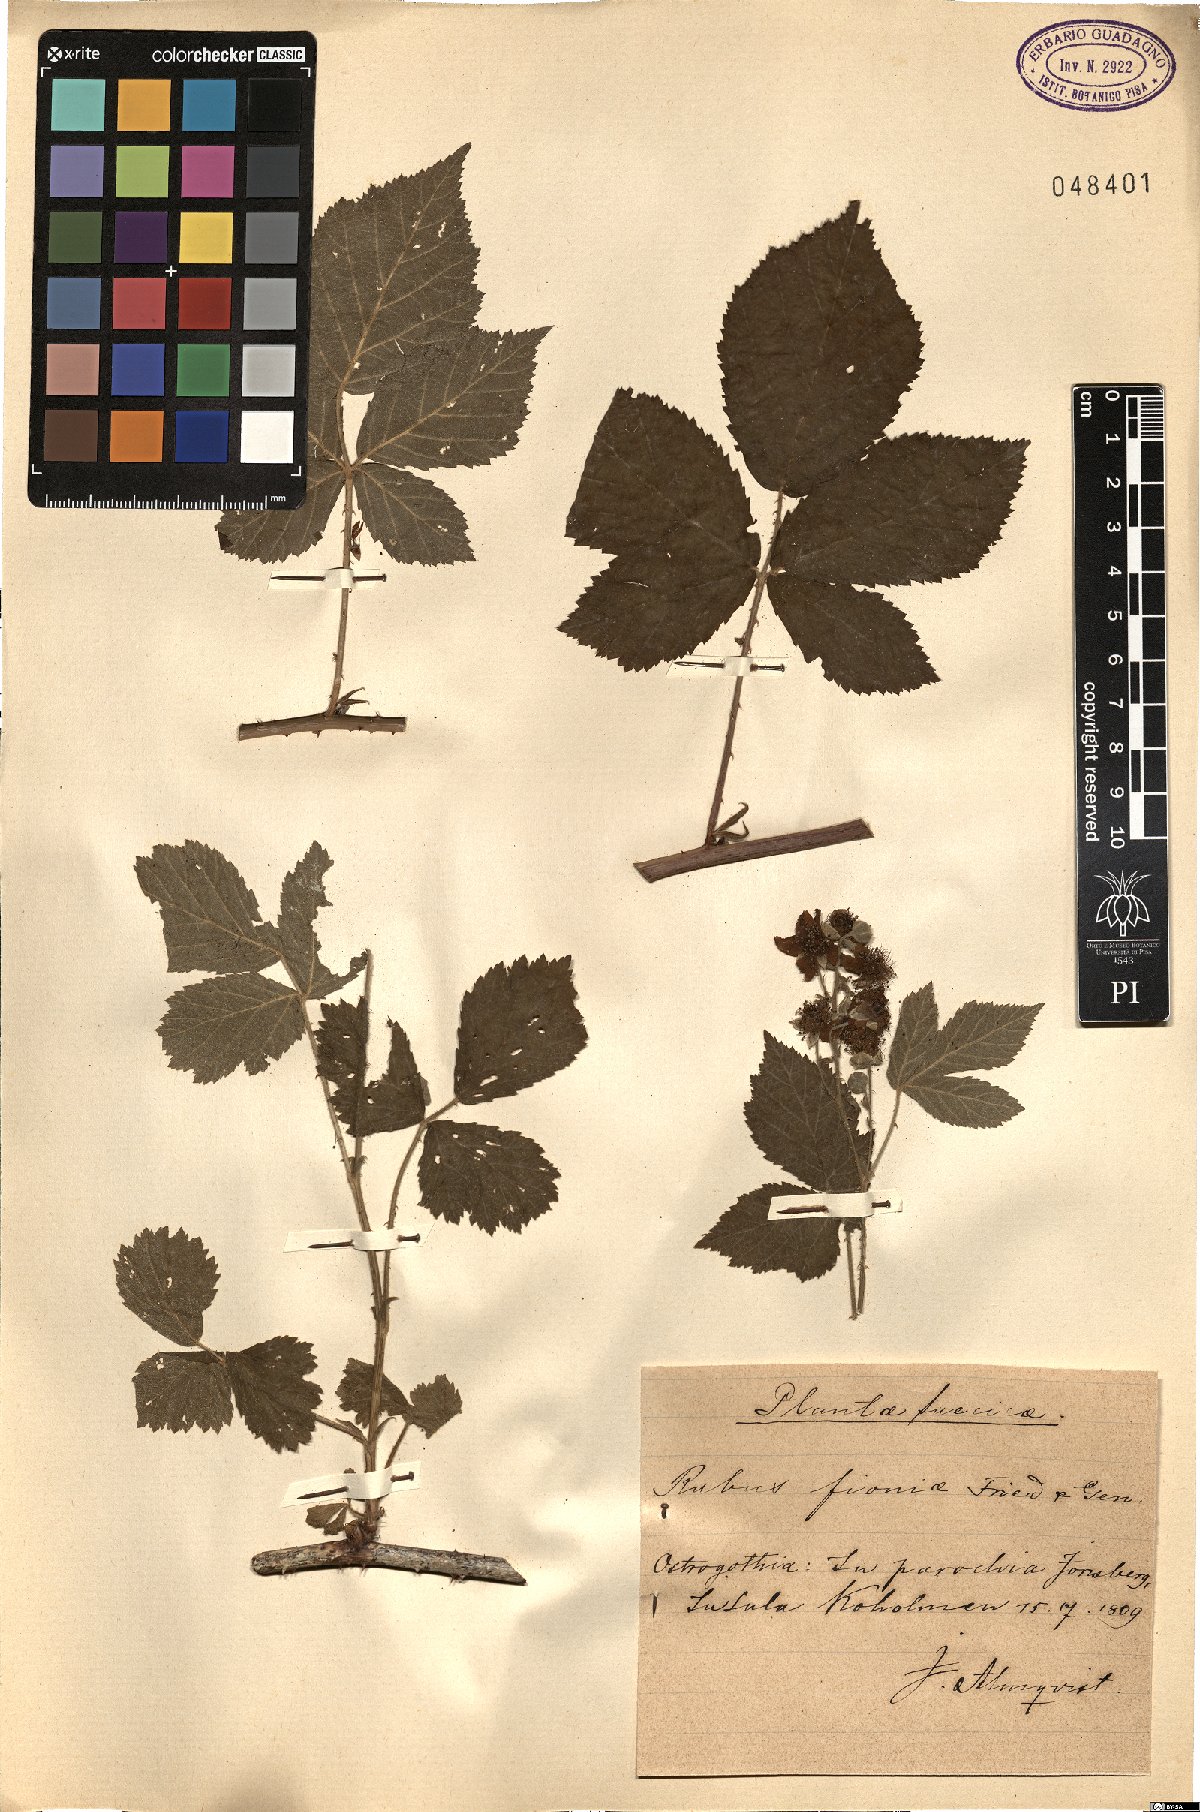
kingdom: Plantae
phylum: Tracheophyta
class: Magnoliopsida
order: Rosales
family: Rosaceae
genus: Rubus
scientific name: Rubus fioniae
